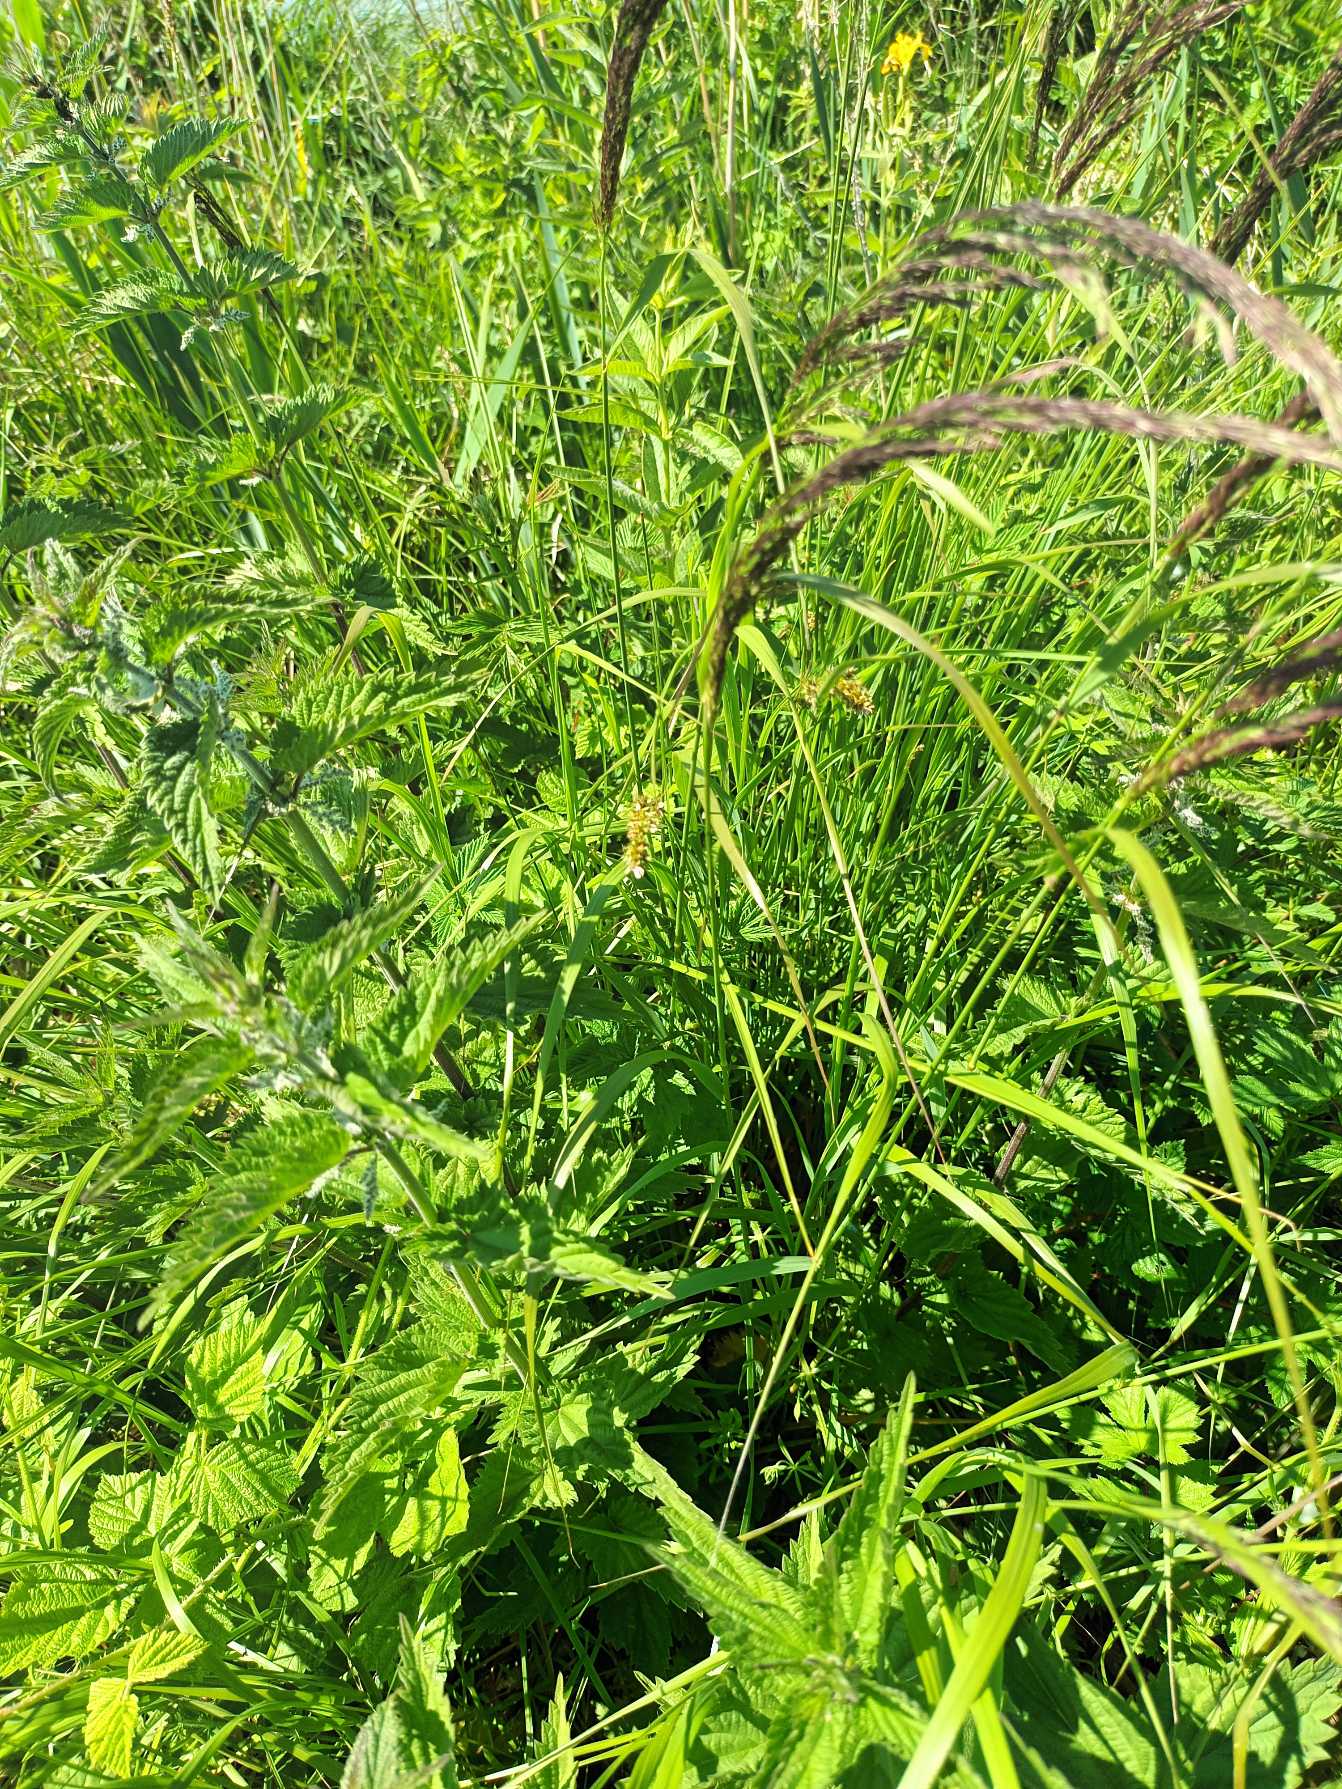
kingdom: Plantae
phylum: Tracheophyta
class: Liliopsida
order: Poales
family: Poaceae
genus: Calamagrostis
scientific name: Calamagrostis canescens
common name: Eng-rørhvene
